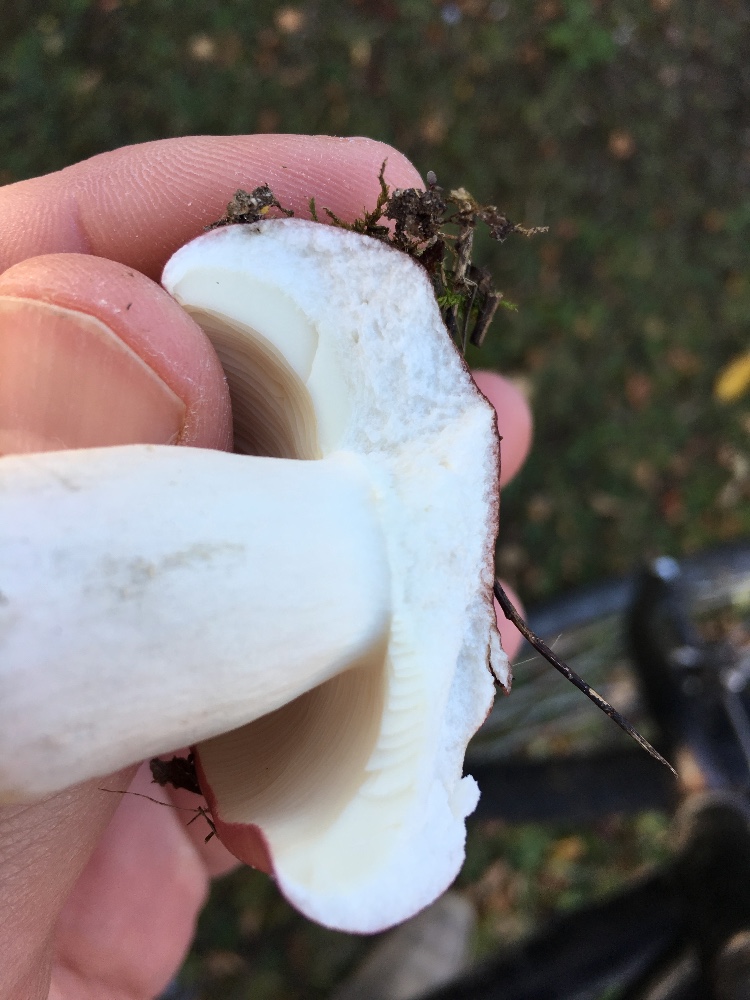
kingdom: Fungi
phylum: Basidiomycota
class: Agaricomycetes
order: Russulales
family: Russulaceae
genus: Russula
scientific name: Russula depallens
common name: falmende skørhat
